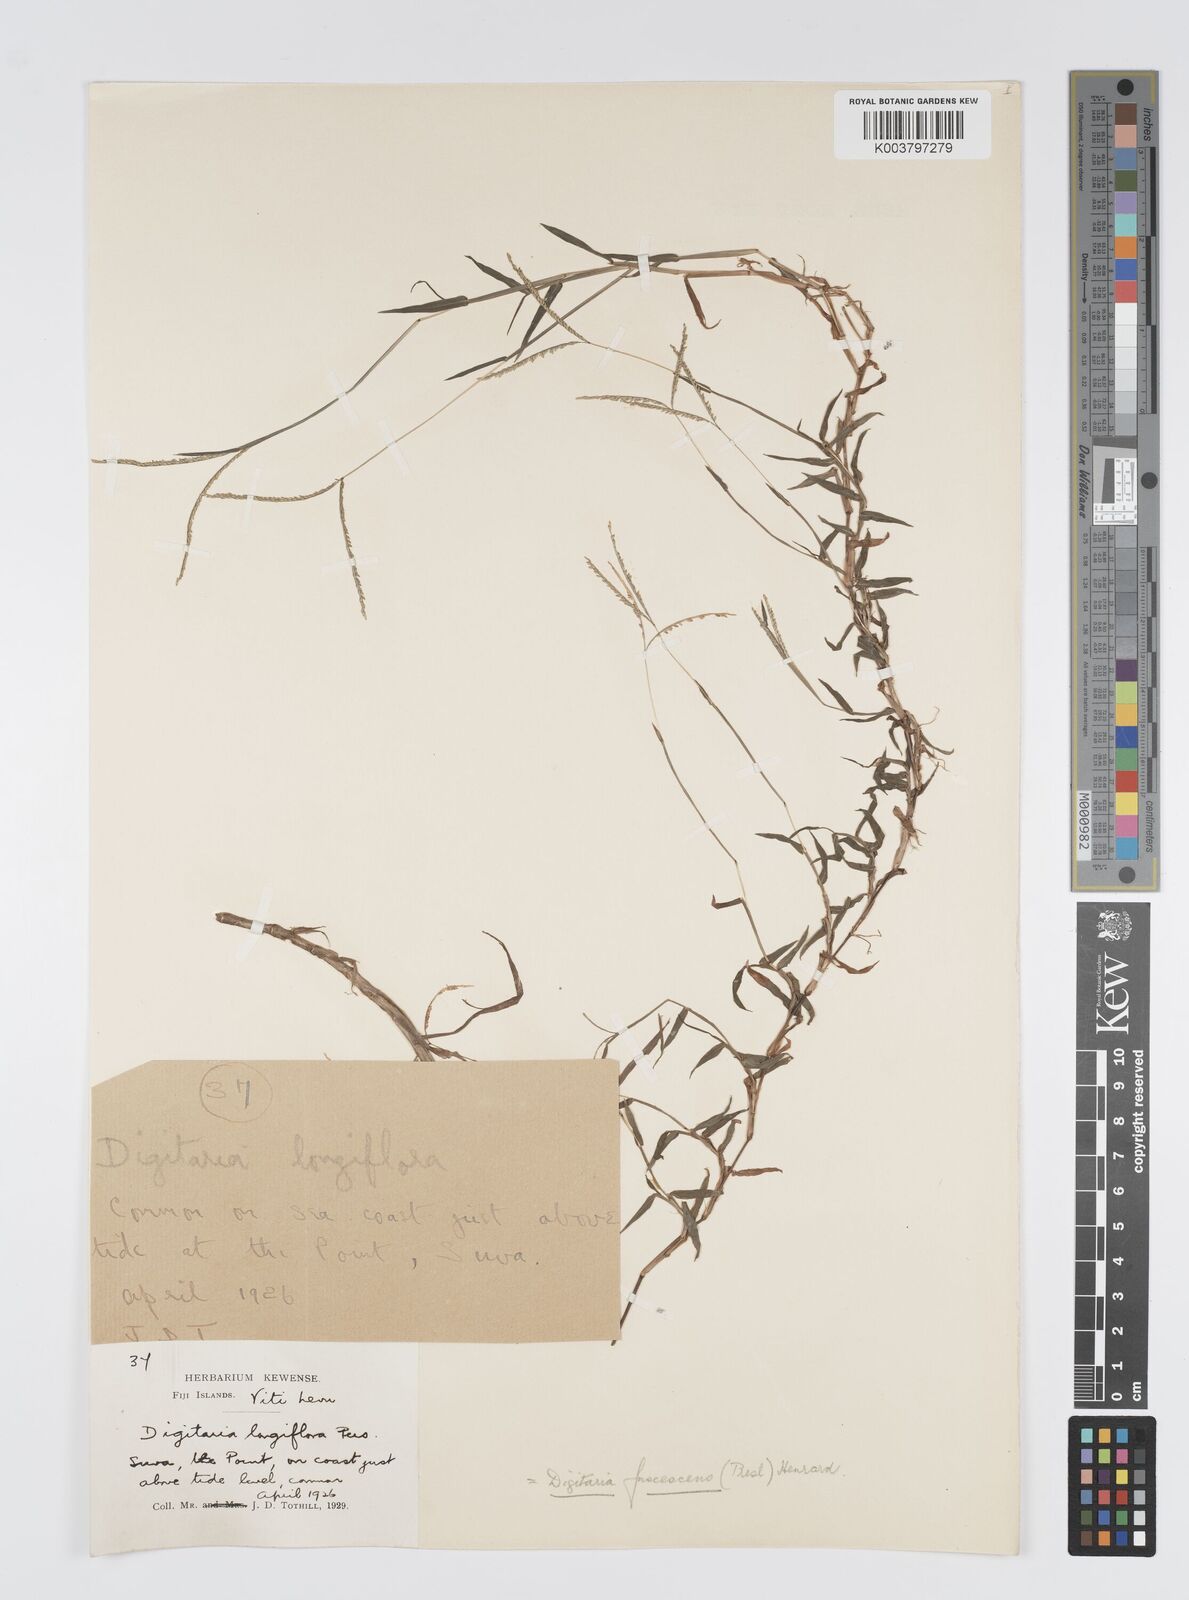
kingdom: Plantae
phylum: Tracheophyta
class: Liliopsida
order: Poales
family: Poaceae
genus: Digitaria
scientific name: Digitaria fuscescens
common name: Yellow crabgrass
